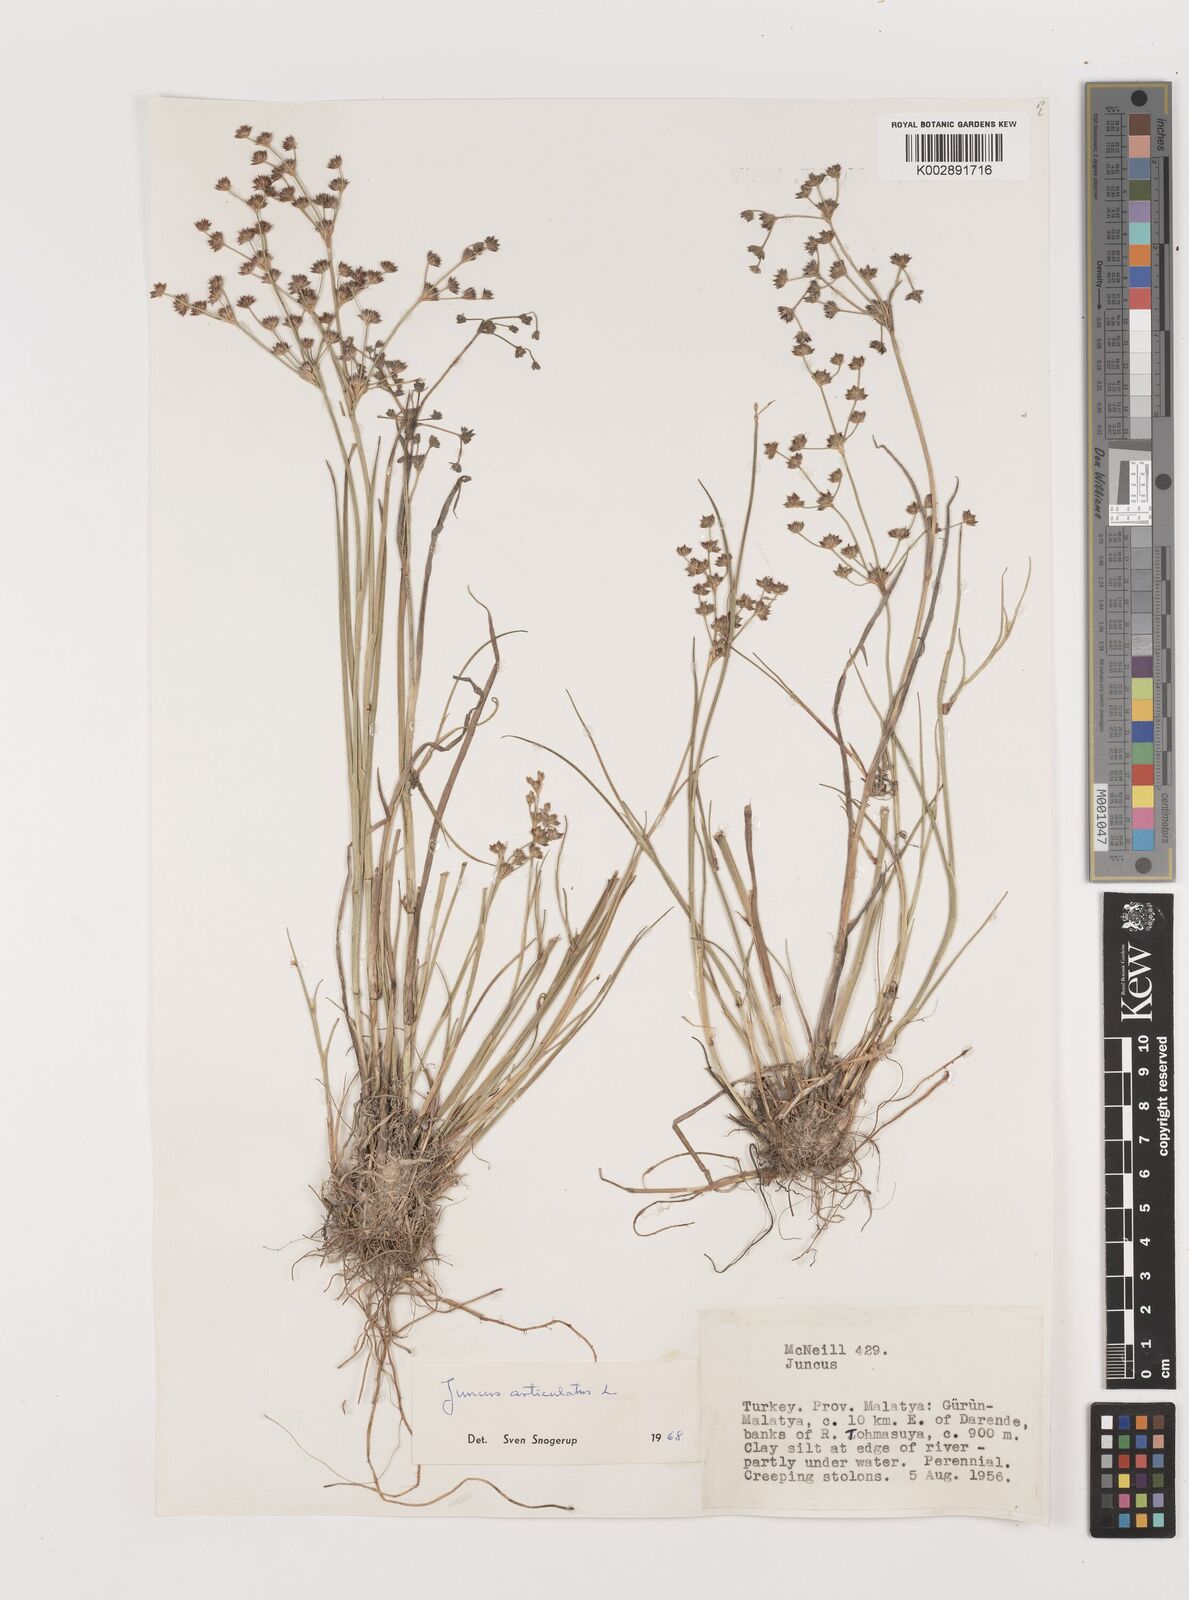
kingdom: Plantae
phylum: Tracheophyta
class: Liliopsida
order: Poales
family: Juncaceae
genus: Juncus
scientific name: Juncus articulatus
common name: Jointed rush
